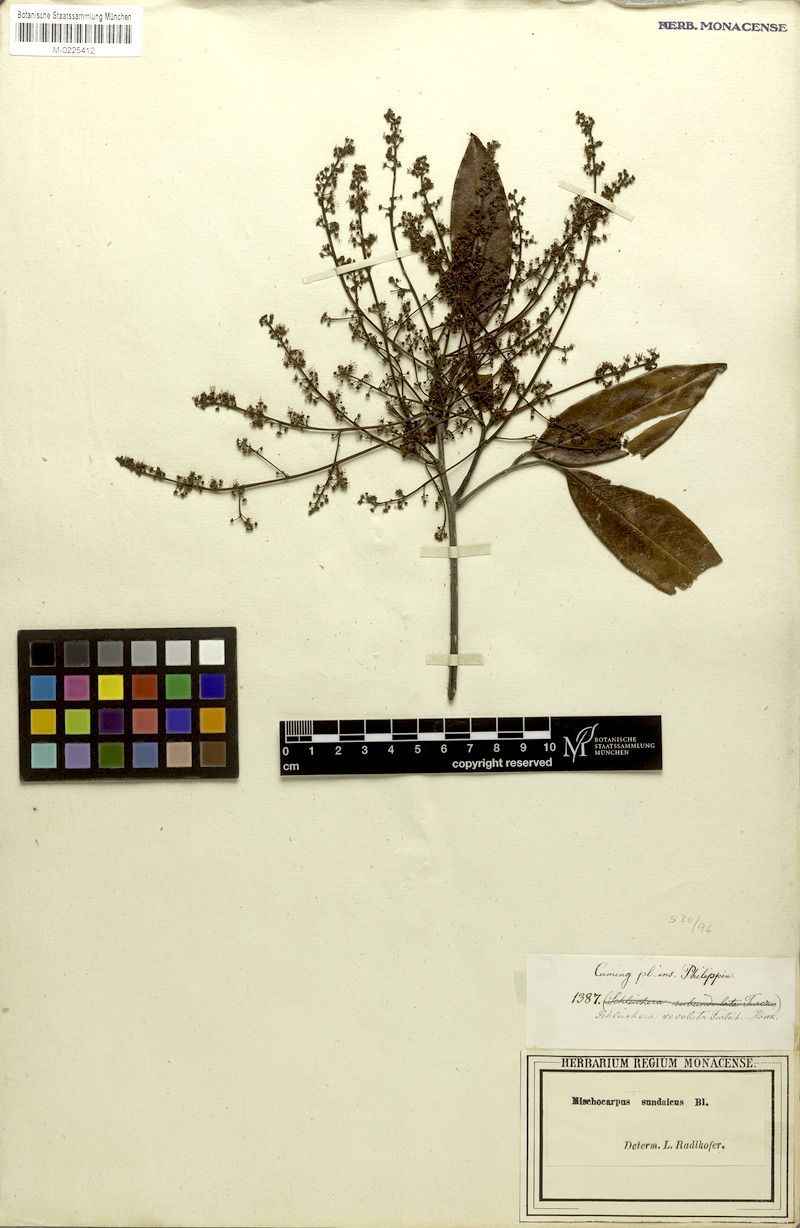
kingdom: Plantae
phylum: Tracheophyta
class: Magnoliopsida
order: Sapindales
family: Sapindaceae
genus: Mischocarpus
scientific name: Mischocarpus sundaicus
